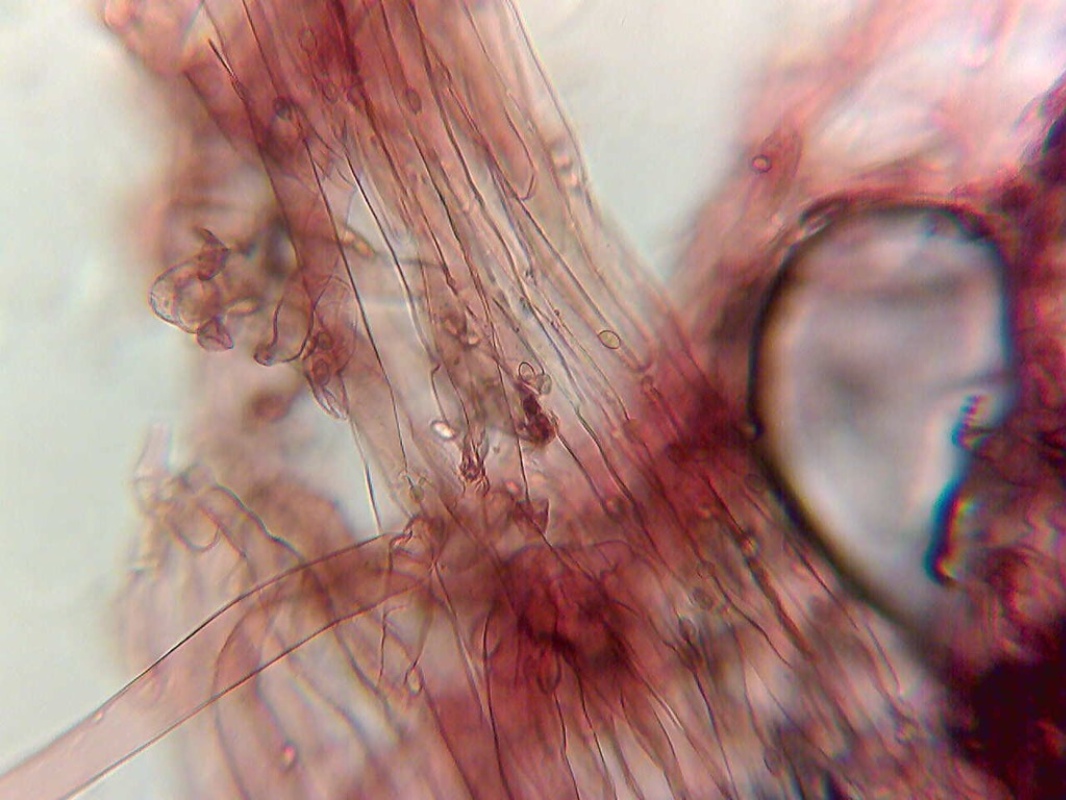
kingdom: Fungi
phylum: Basidiomycota
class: Agaricomycetes
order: Agaricales
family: Agaricaceae
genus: Lepiota
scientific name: Lepiota pseudolilacea
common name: gråbrun parasolhat
